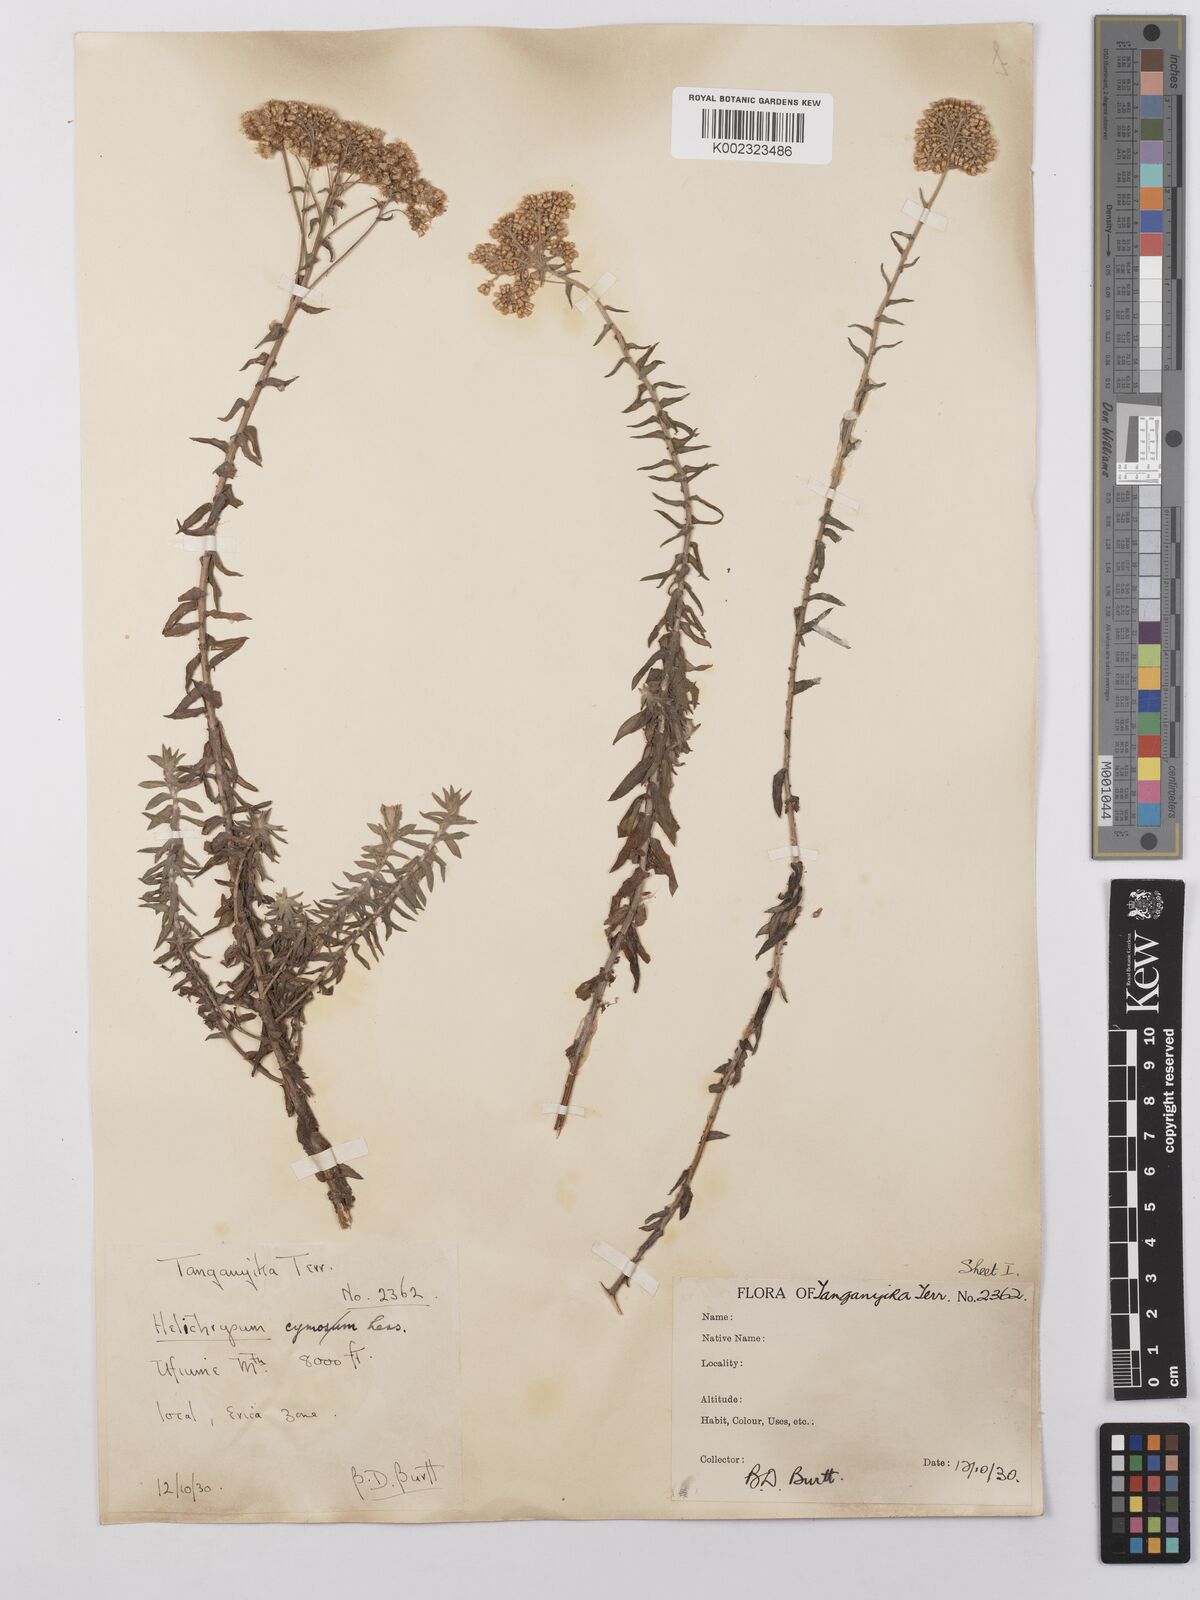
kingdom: Plantae
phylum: Tracheophyta
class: Magnoliopsida
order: Asterales
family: Asteraceae
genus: Helichrysum
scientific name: Helichrysum forskahlii
